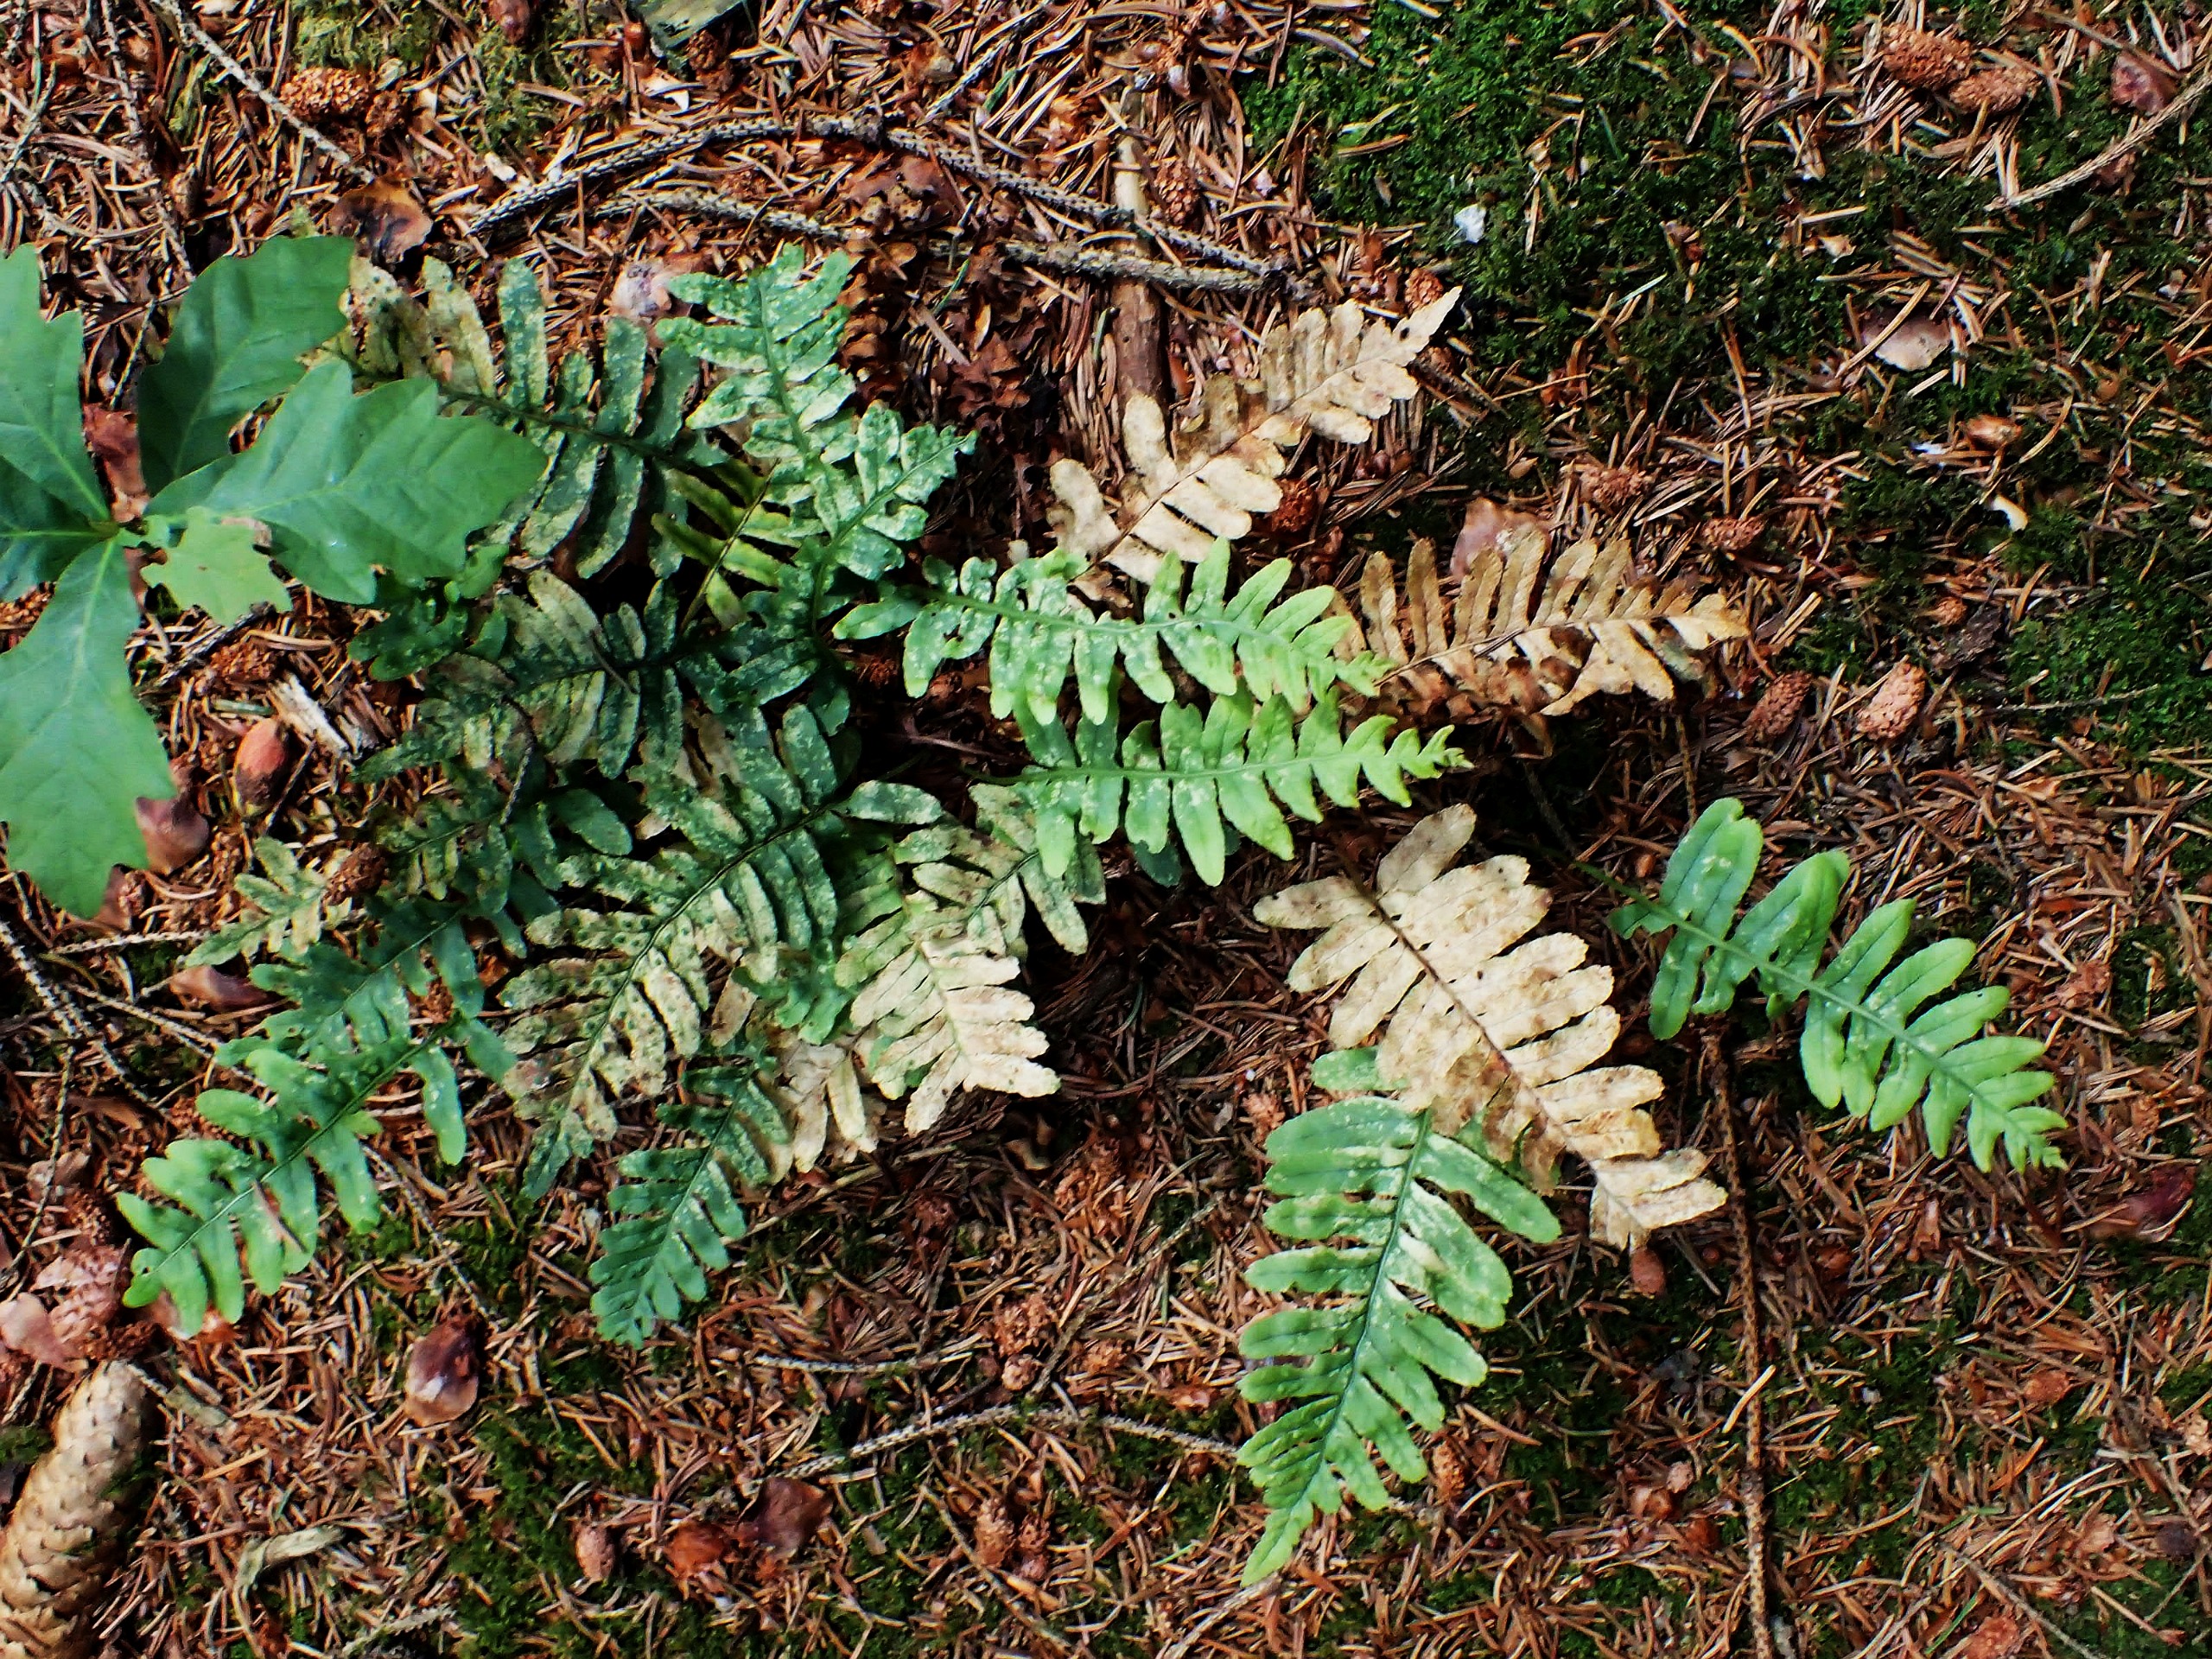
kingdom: Plantae
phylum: Tracheophyta
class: Polypodiopsida
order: Polypodiales
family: Polypodiaceae
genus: Polypodium
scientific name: Polypodium vulgare
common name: Almindelig engelsød
